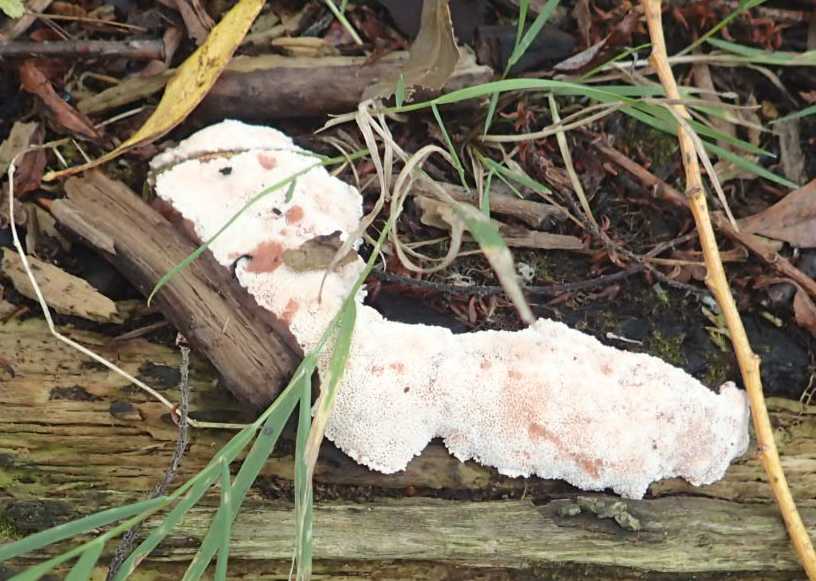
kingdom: Fungi
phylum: Basidiomycota
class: Agaricomycetes
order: Polyporales
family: Podoscyphaceae
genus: Abortiporus
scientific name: Abortiporus biennis
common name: rødmende pjalteporesvamp
